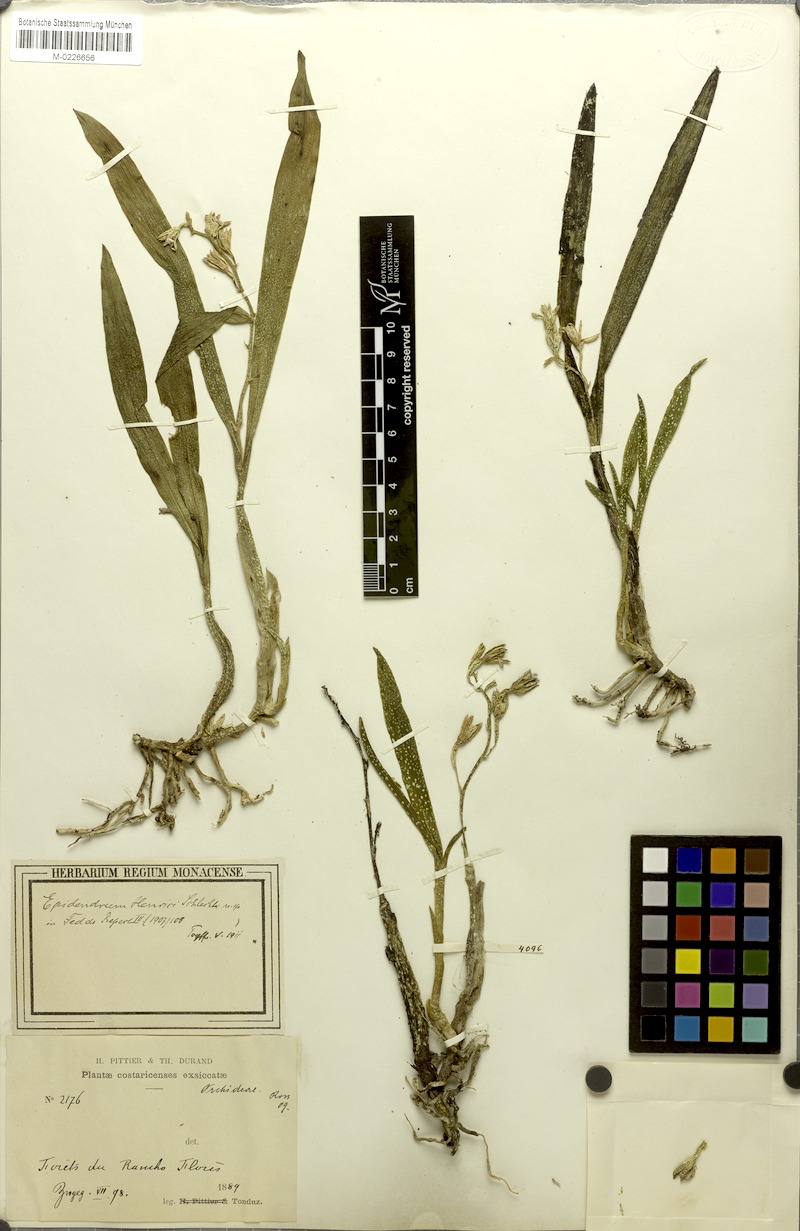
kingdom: Plantae
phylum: Tracheophyta
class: Liliopsida
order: Asparagales
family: Orchidaceae
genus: Prosthechea
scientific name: Prosthechea livida
